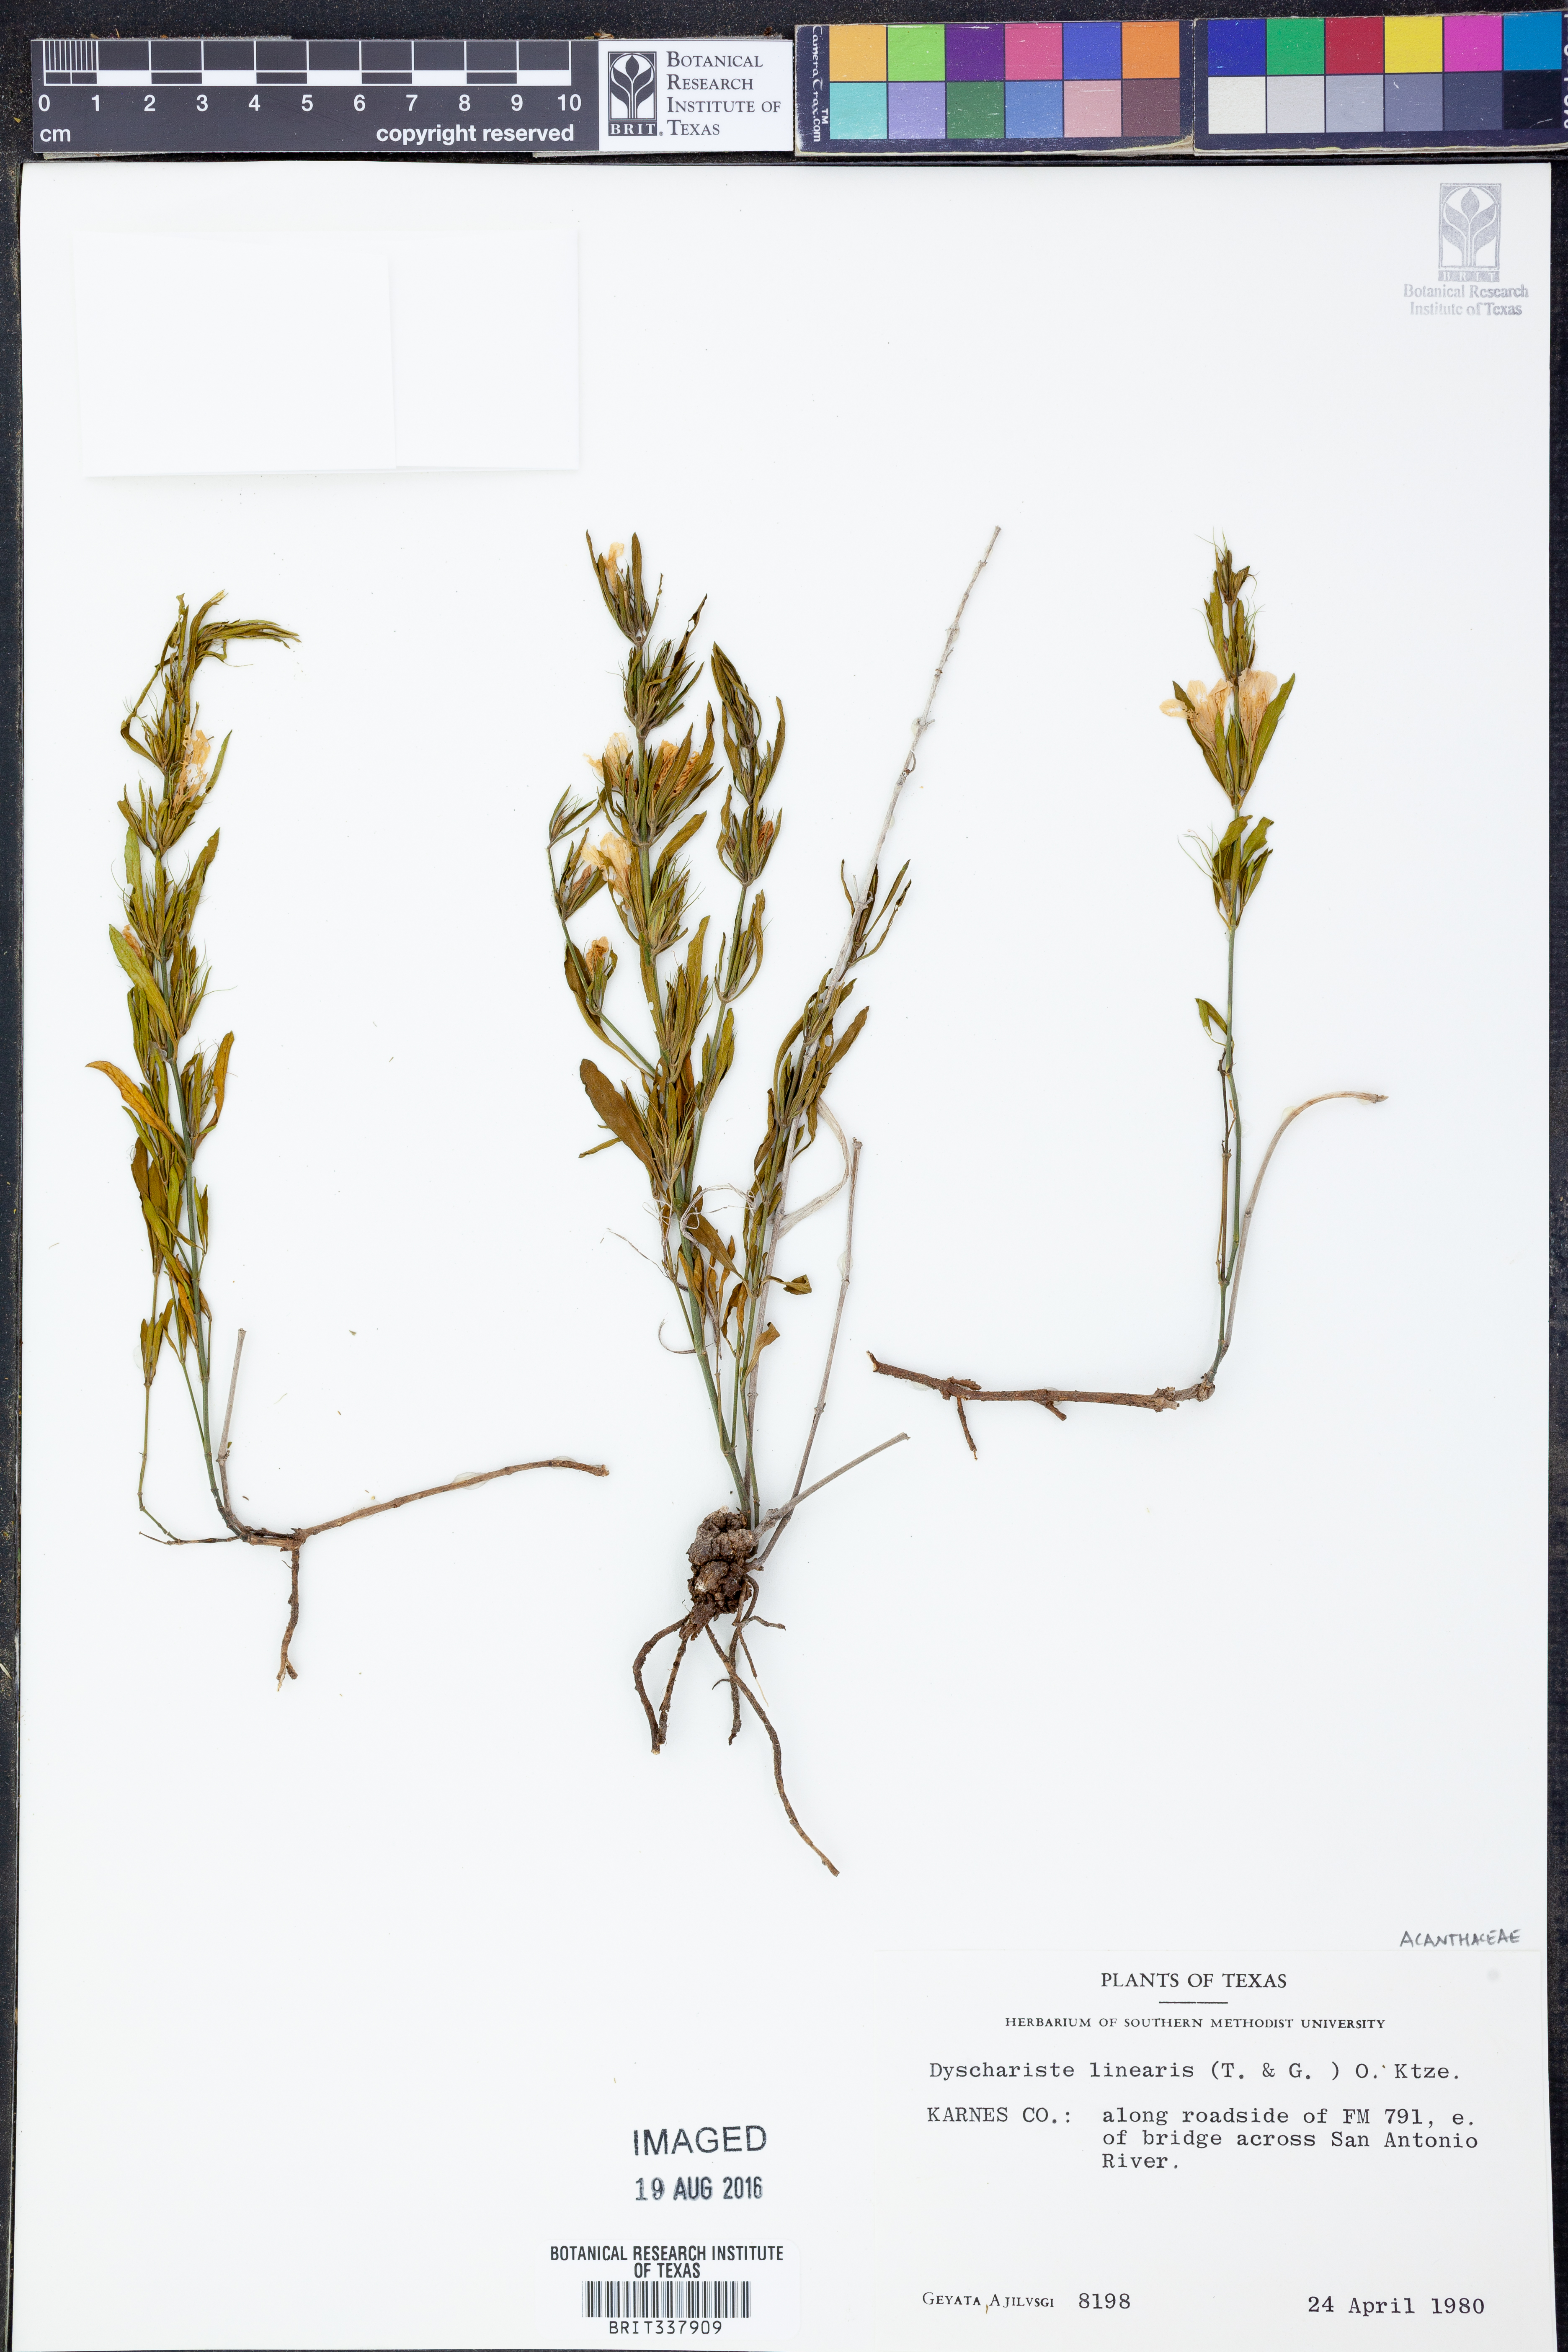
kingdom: Plantae
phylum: Tracheophyta
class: Magnoliopsida
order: Lamiales
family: Acanthaceae
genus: Dyschoriste
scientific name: Dyschoriste linearis
